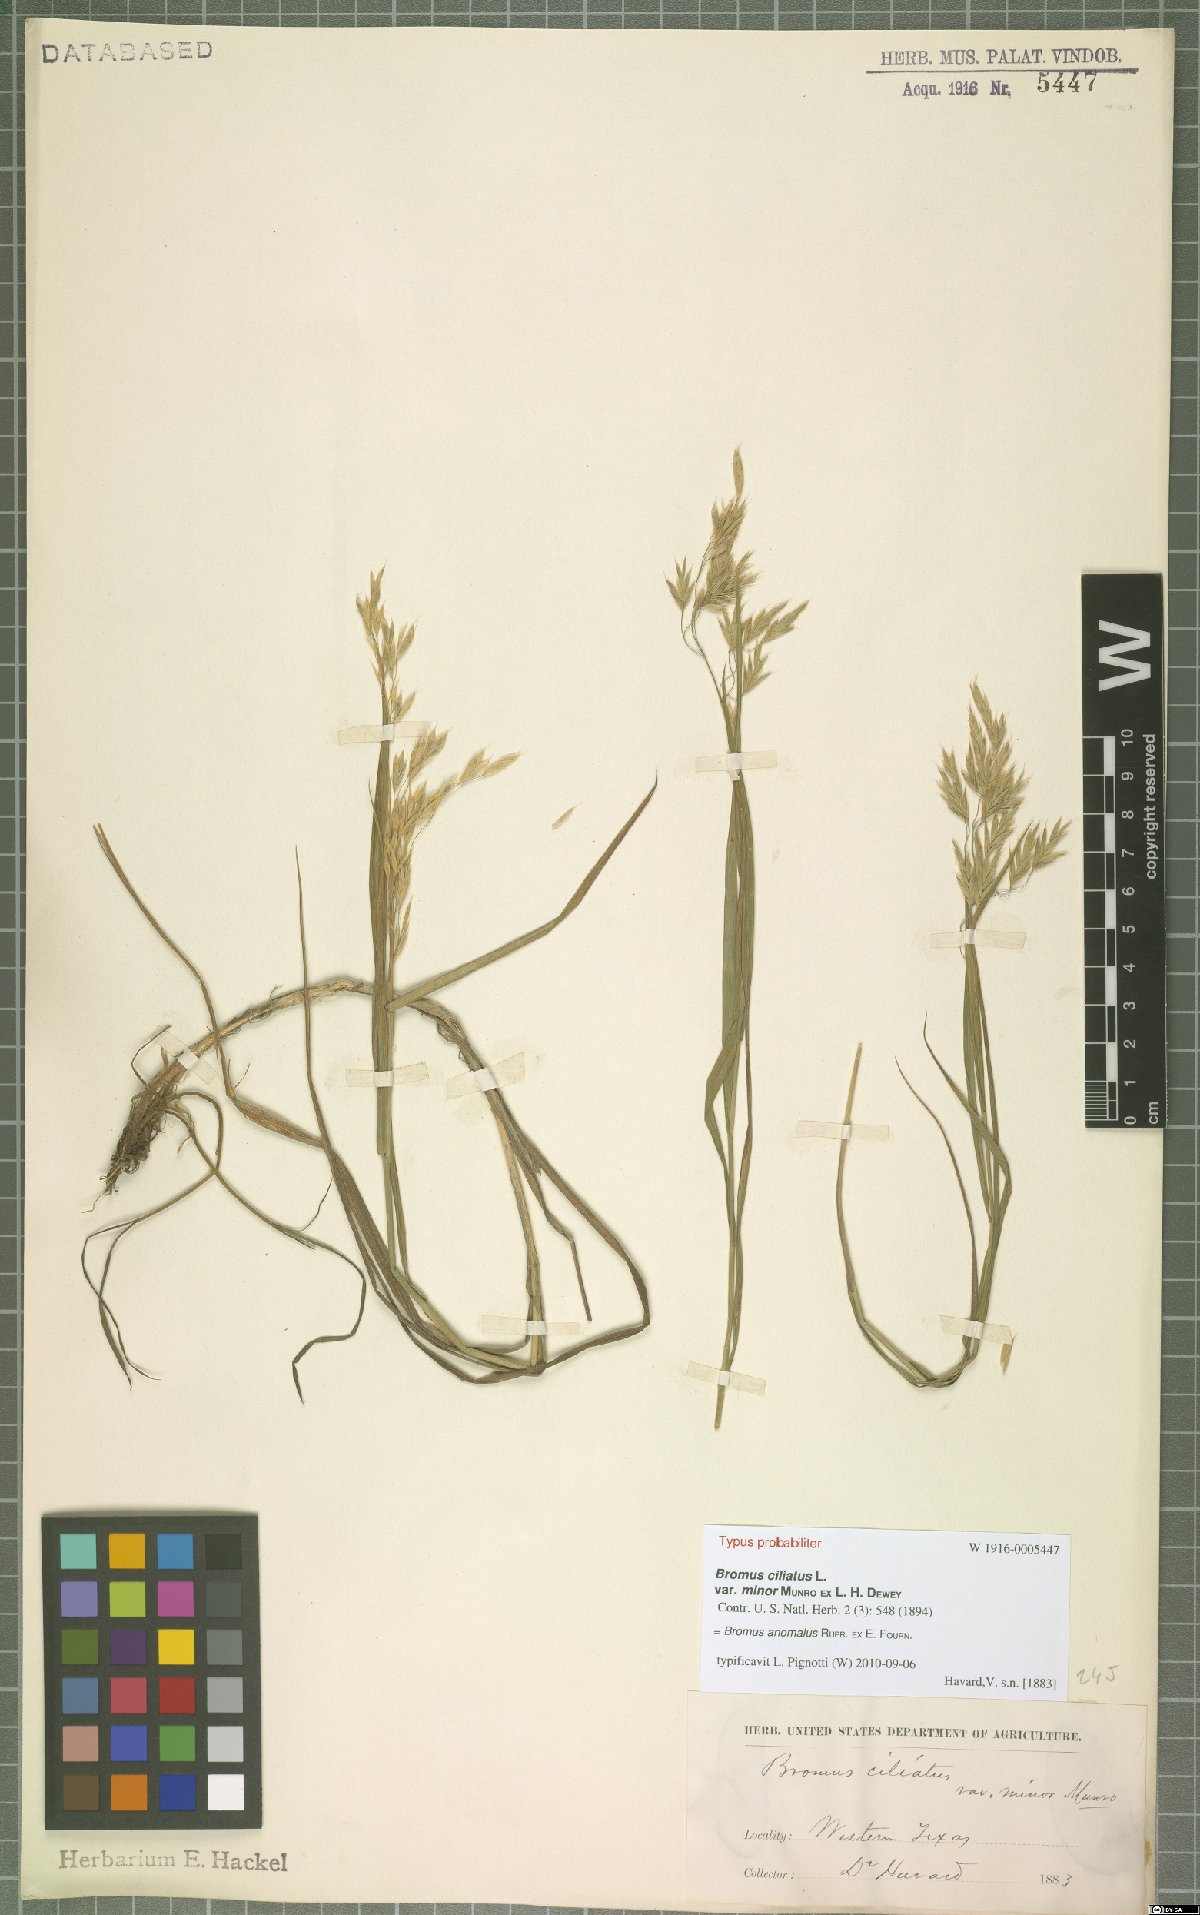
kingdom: Plantae
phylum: Tracheophyta
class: Liliopsida
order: Poales
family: Poaceae
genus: Bromus
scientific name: Bromus anomalus
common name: Nodding brome
